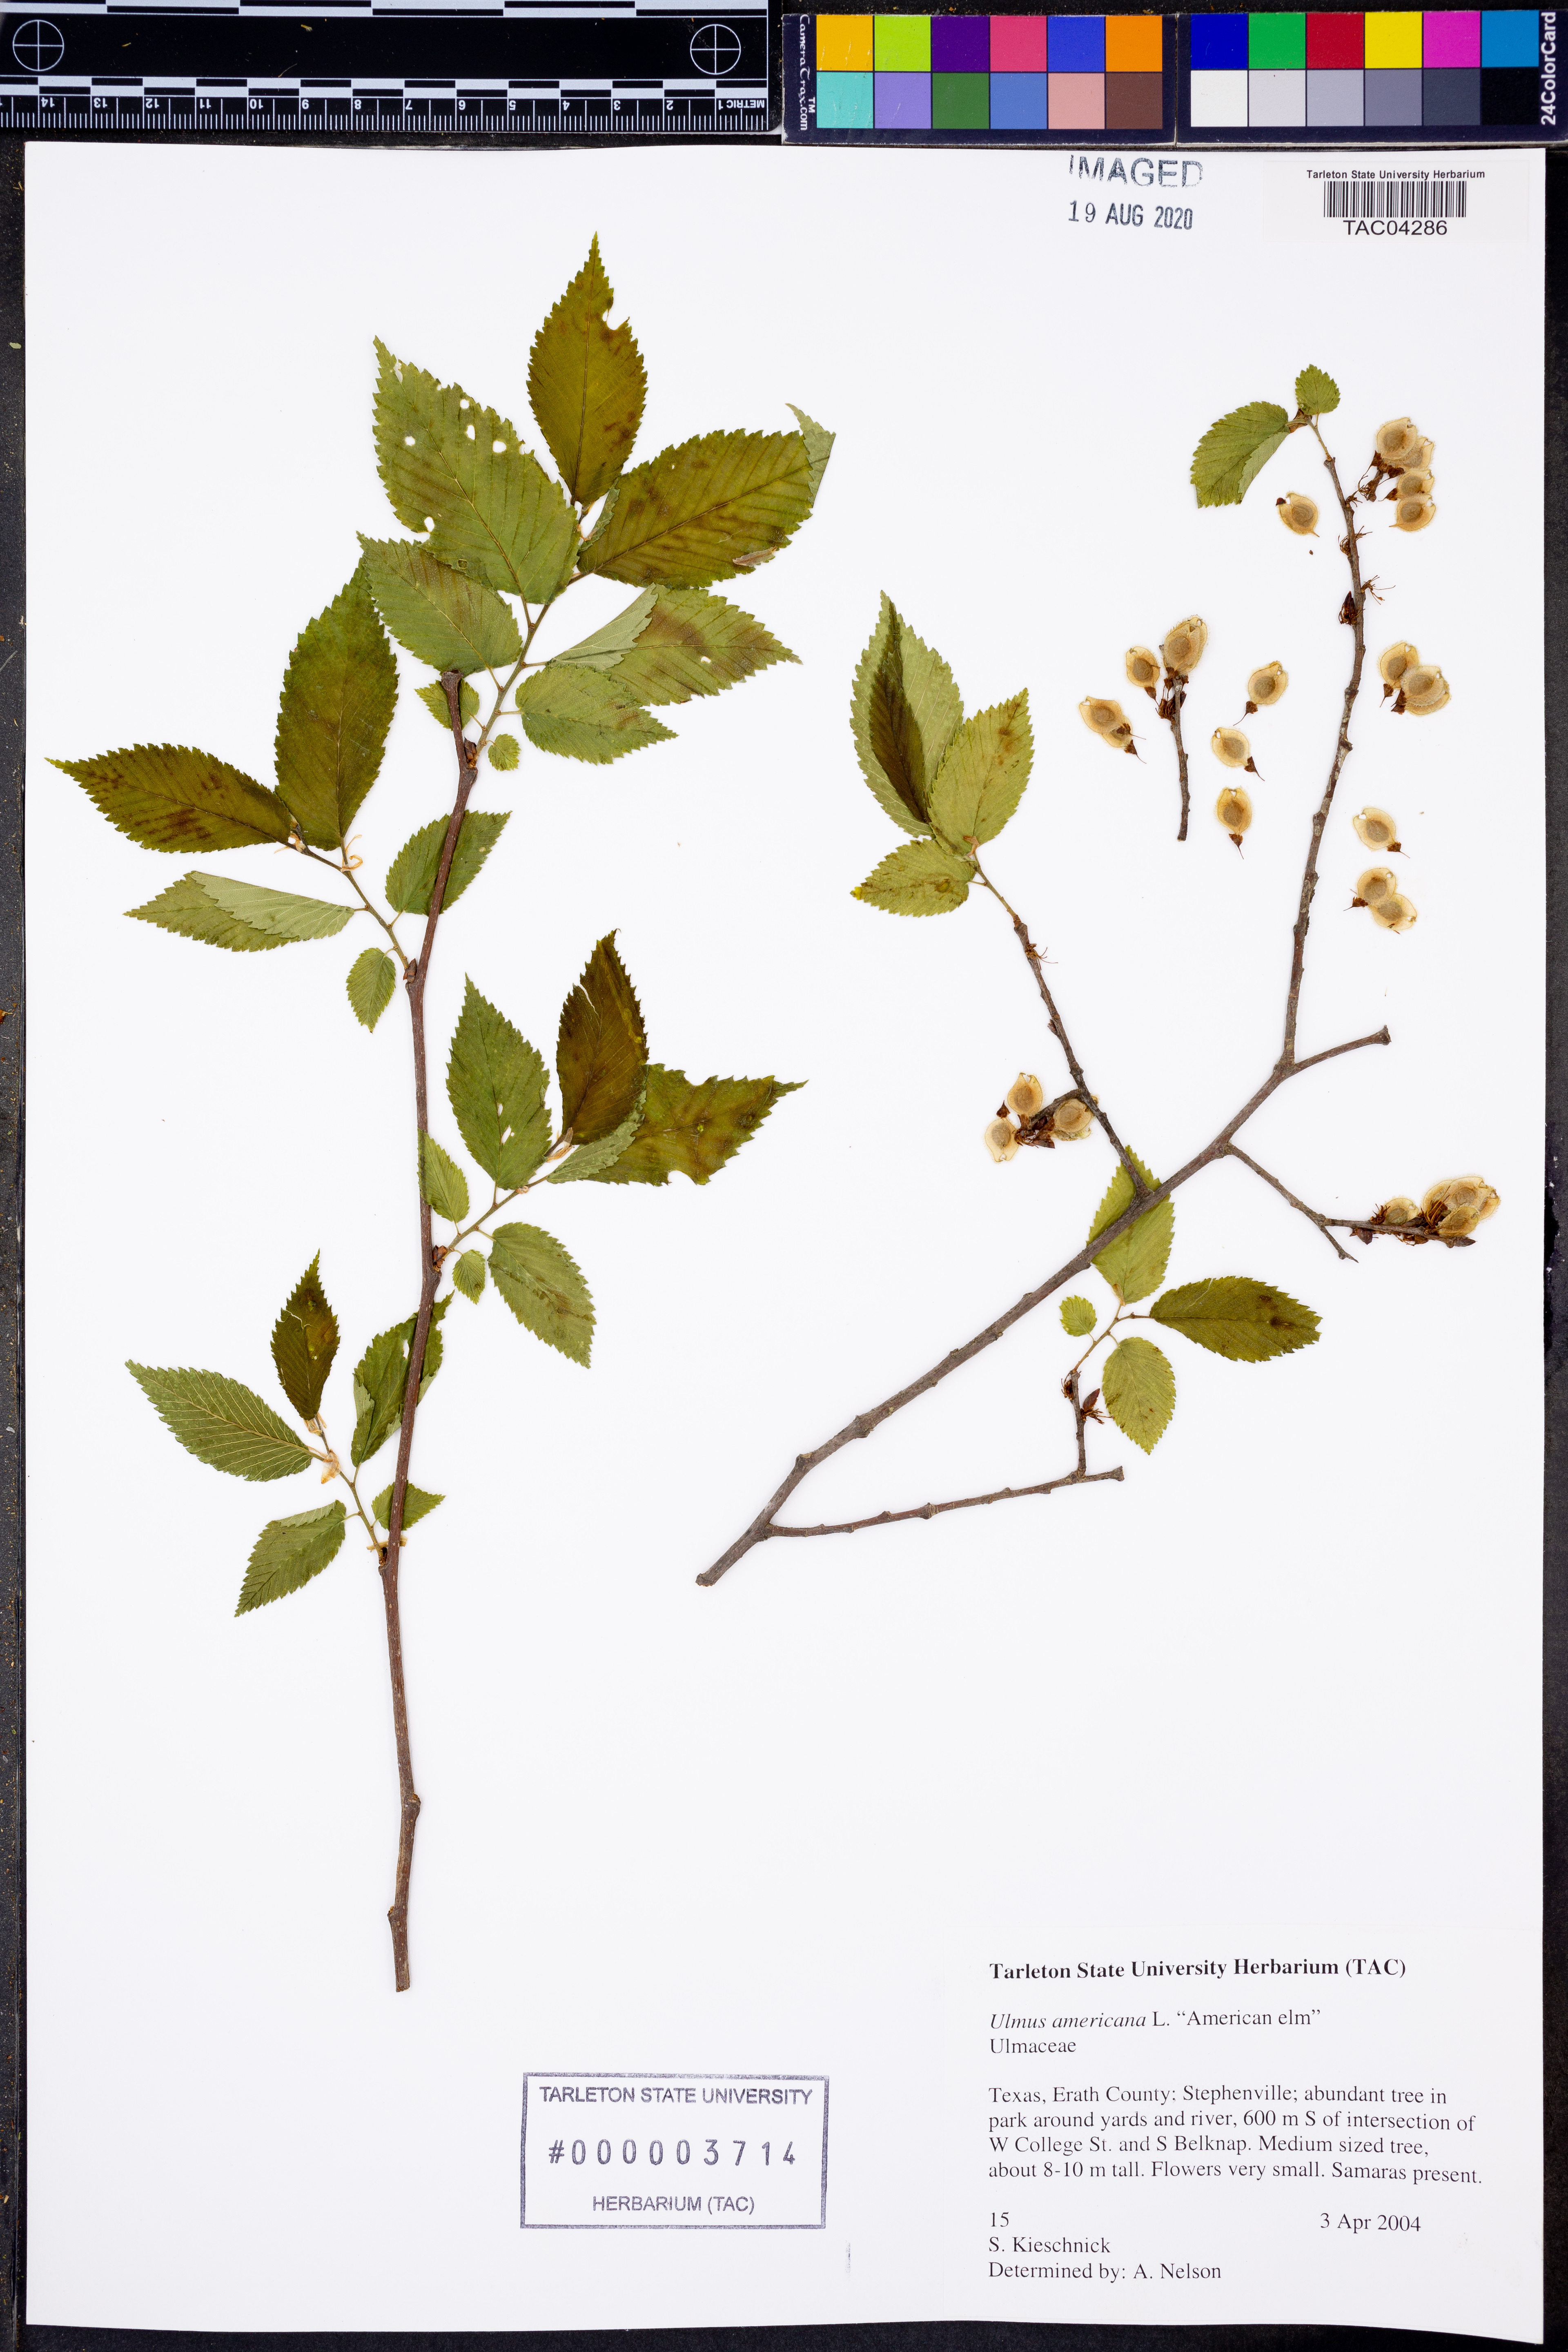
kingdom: Plantae
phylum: Tracheophyta
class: Magnoliopsida
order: Rosales
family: Ulmaceae
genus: Ulmus
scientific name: Ulmus americana
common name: American elm
